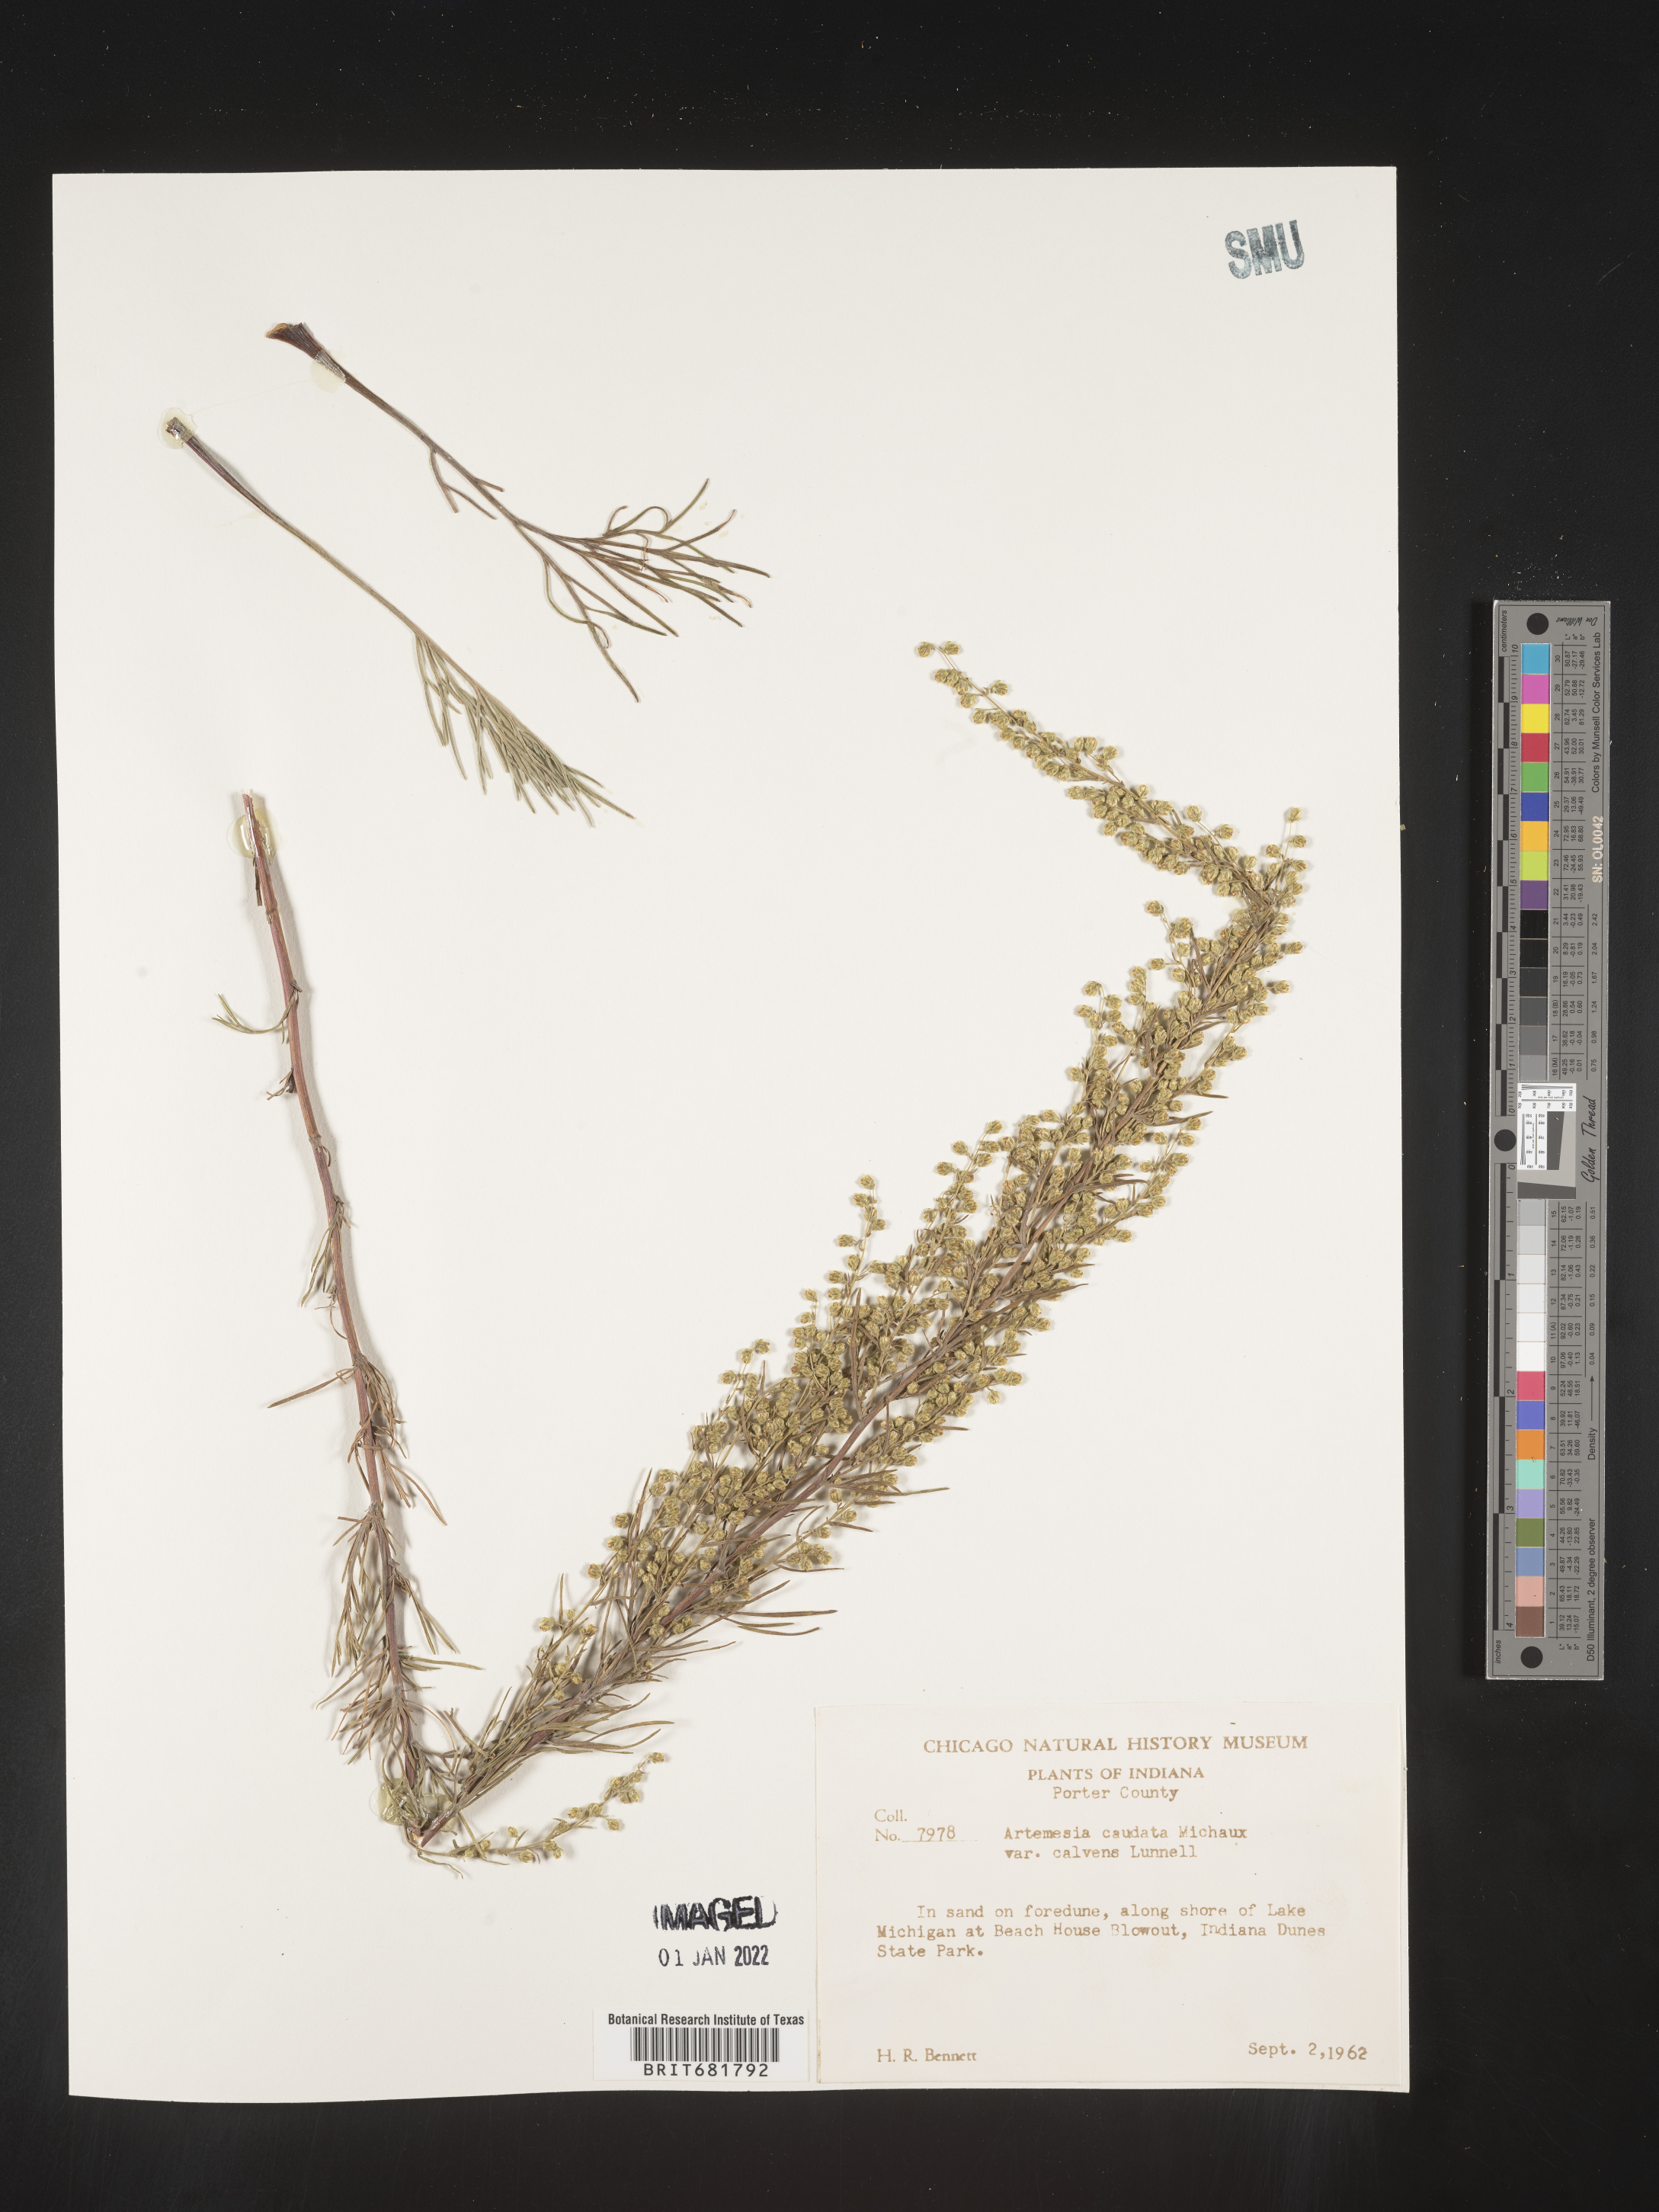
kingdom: Plantae
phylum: Tracheophyta
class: Magnoliopsida
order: Asterales
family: Asteraceae
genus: Artemisia
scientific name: Artemisia campestris
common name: Field wormwood
